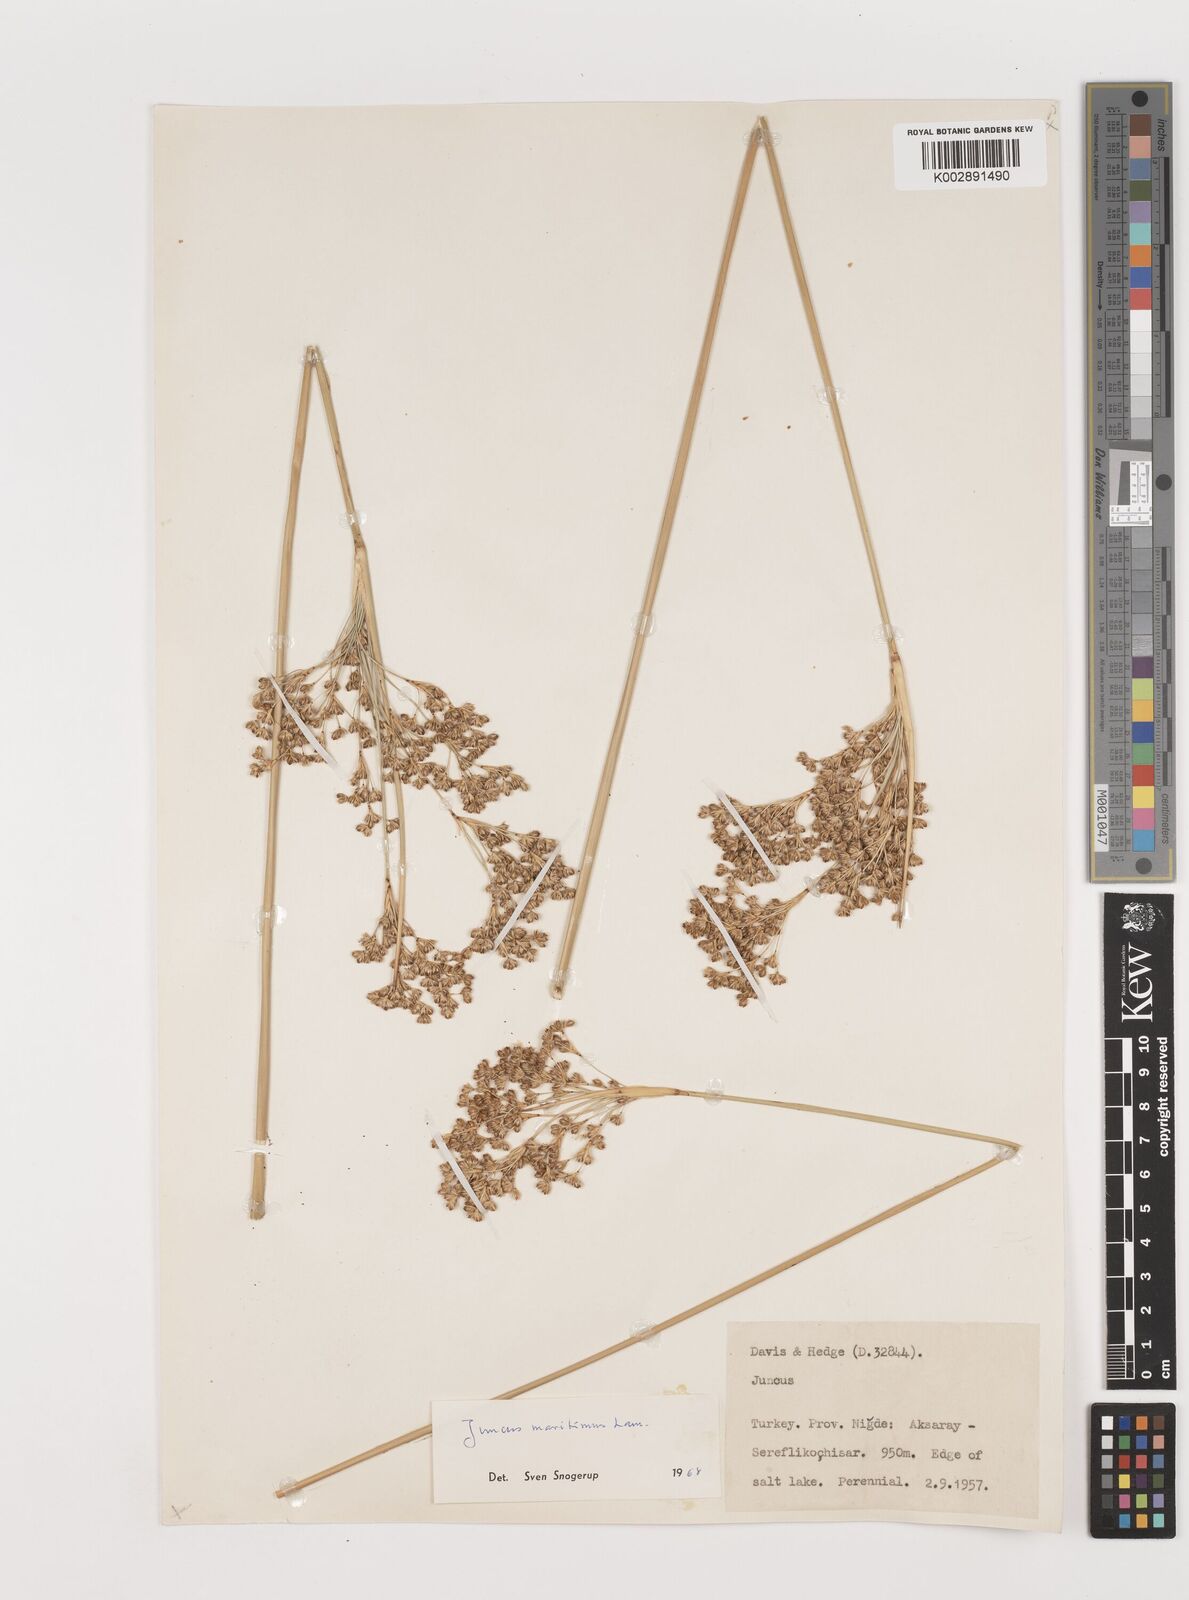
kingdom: Plantae
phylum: Tracheophyta
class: Liliopsida
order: Poales
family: Juncaceae
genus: Juncus
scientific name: Juncus maritimus
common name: Sea rush
